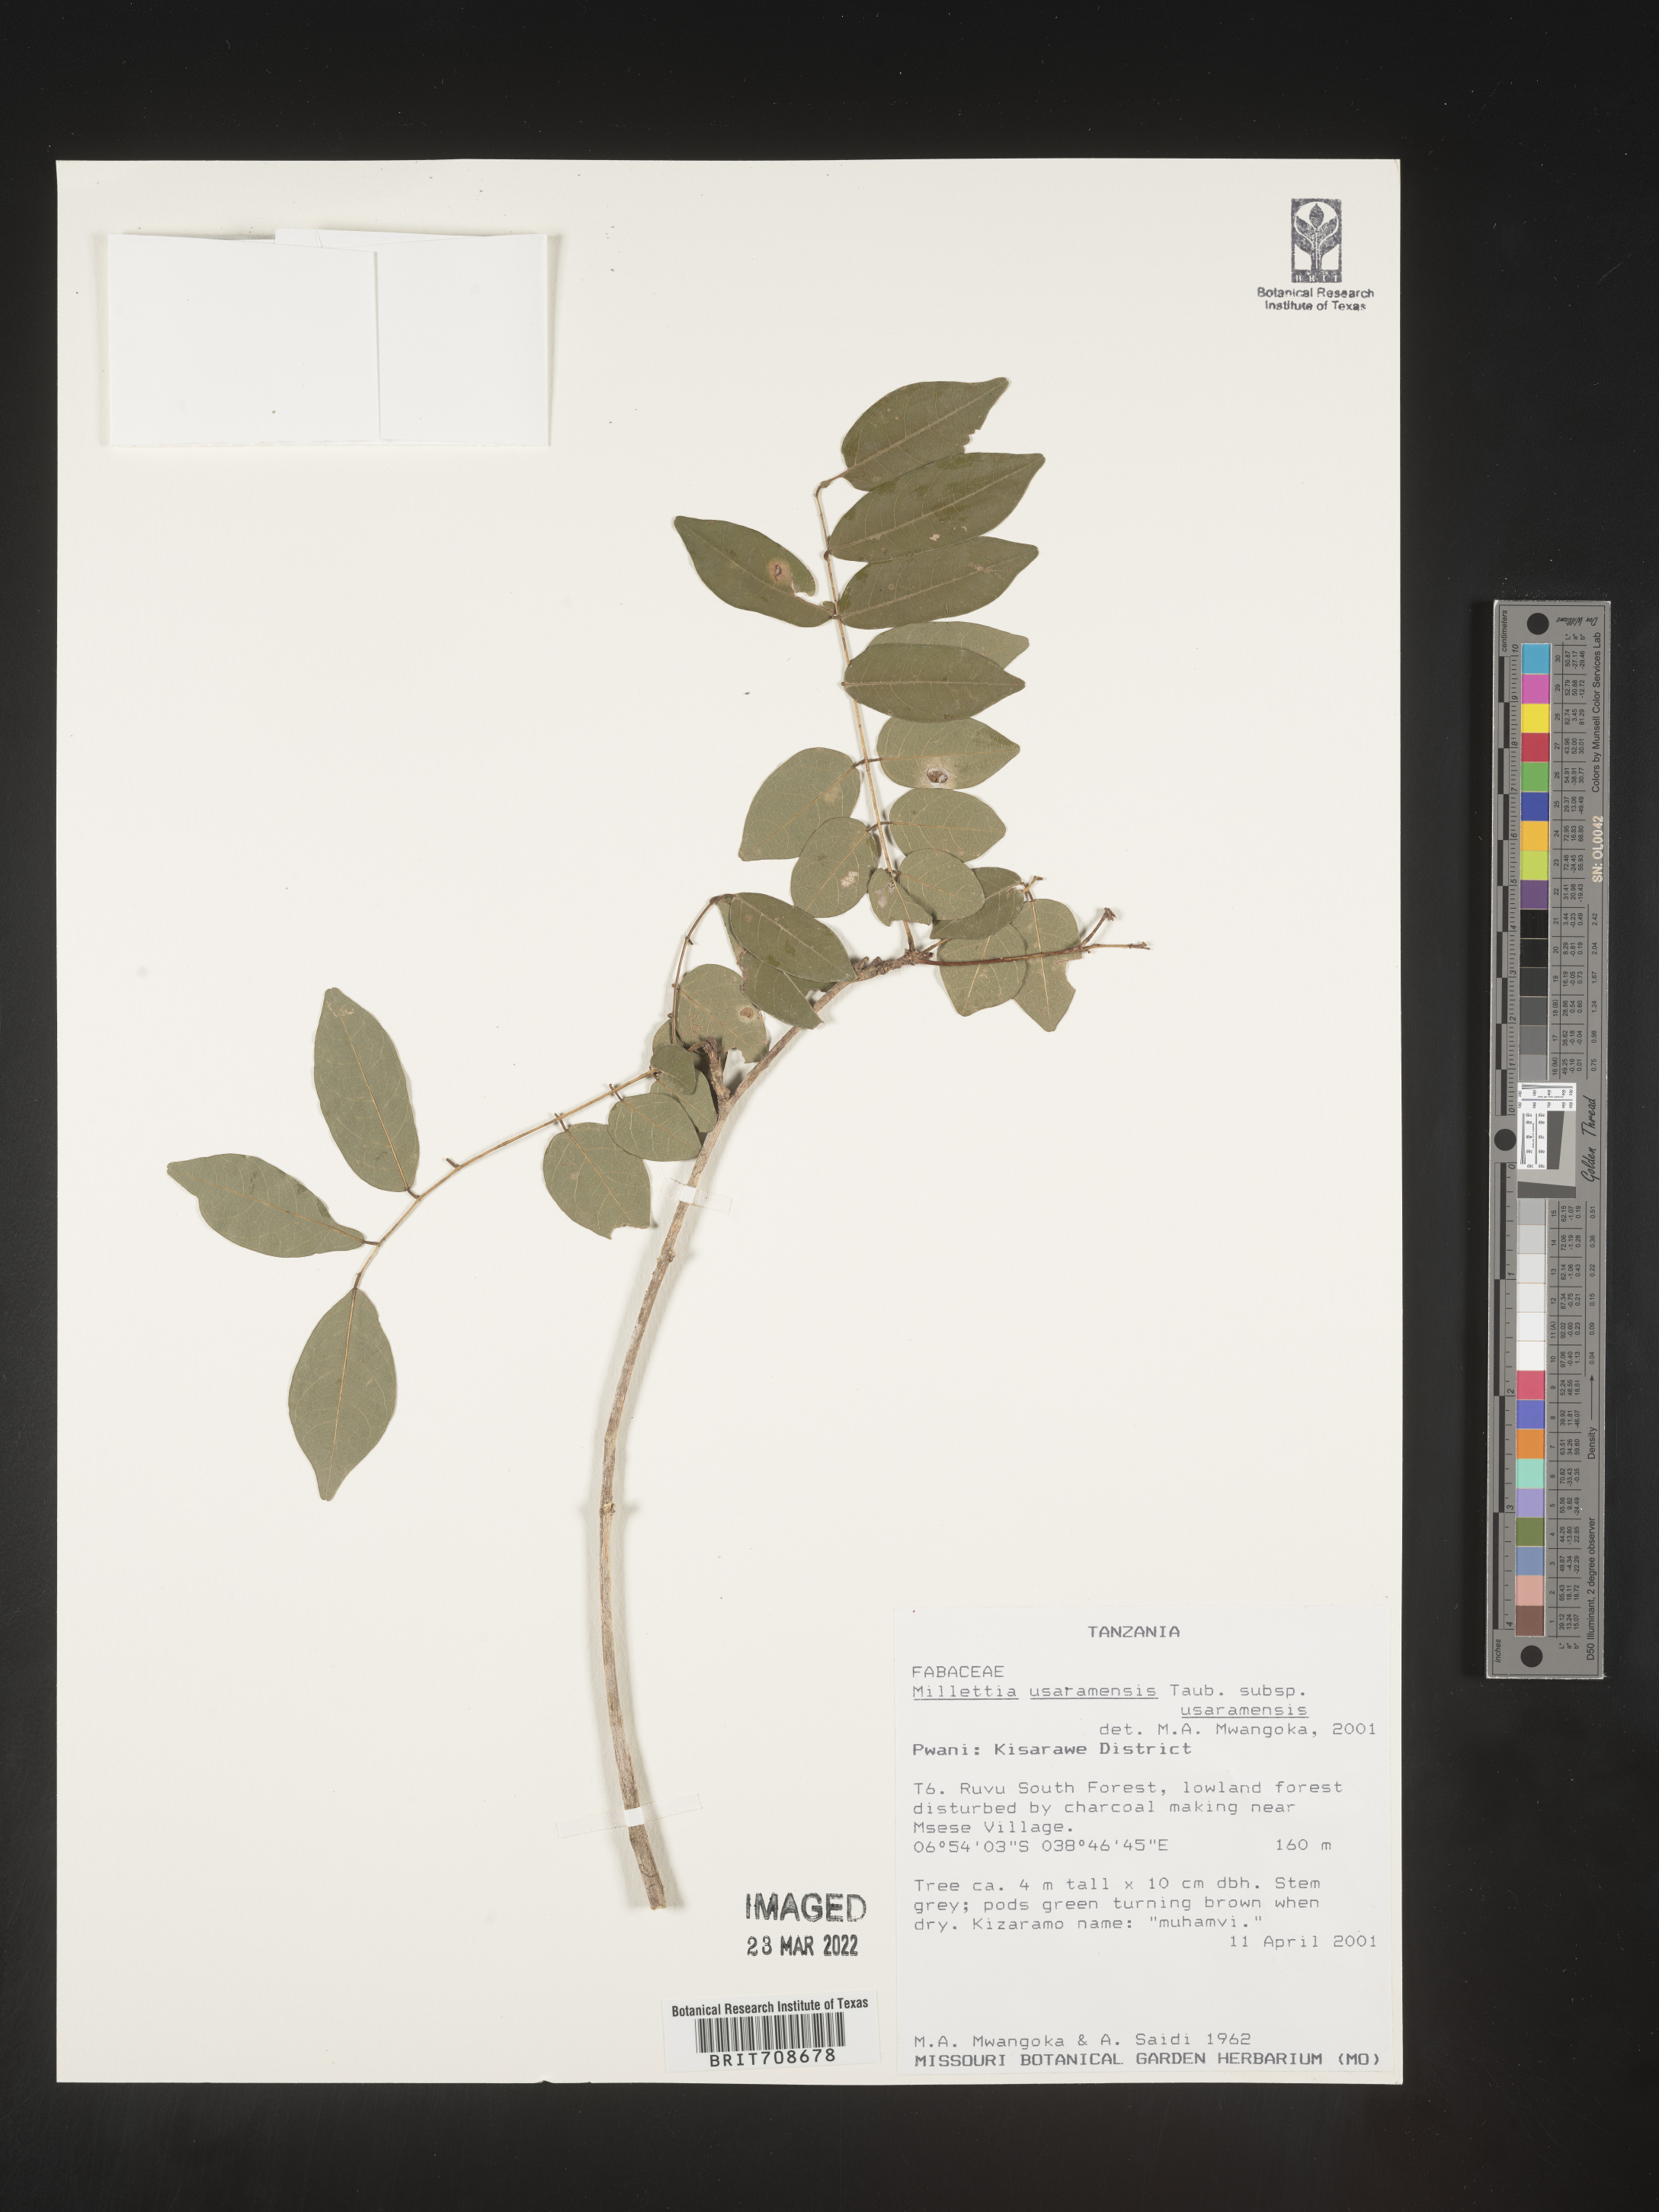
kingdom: Plantae
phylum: Tracheophyta
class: Magnoliopsida
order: Fabales
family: Fabaceae
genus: Millettia
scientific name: Millettia
